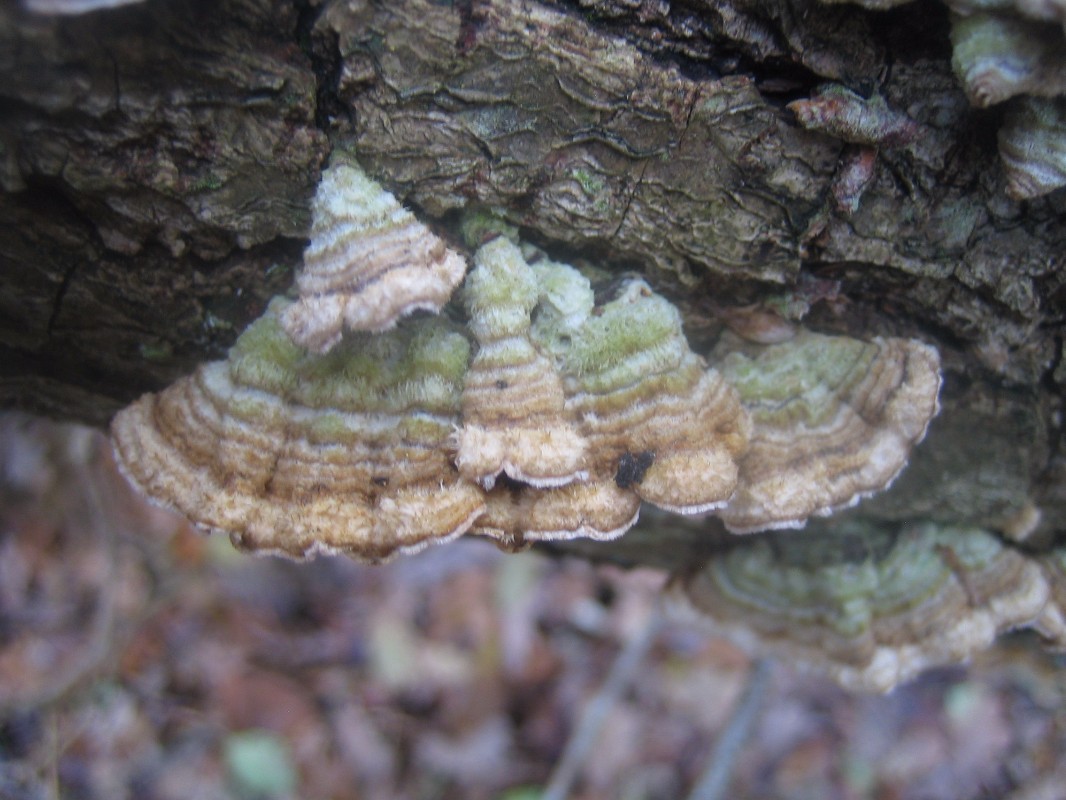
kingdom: Fungi
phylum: Basidiomycota
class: Agaricomycetes
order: Polyporales
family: Polyporaceae
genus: Trametes
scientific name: Trametes hirsuta
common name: håret læderporesvamp
